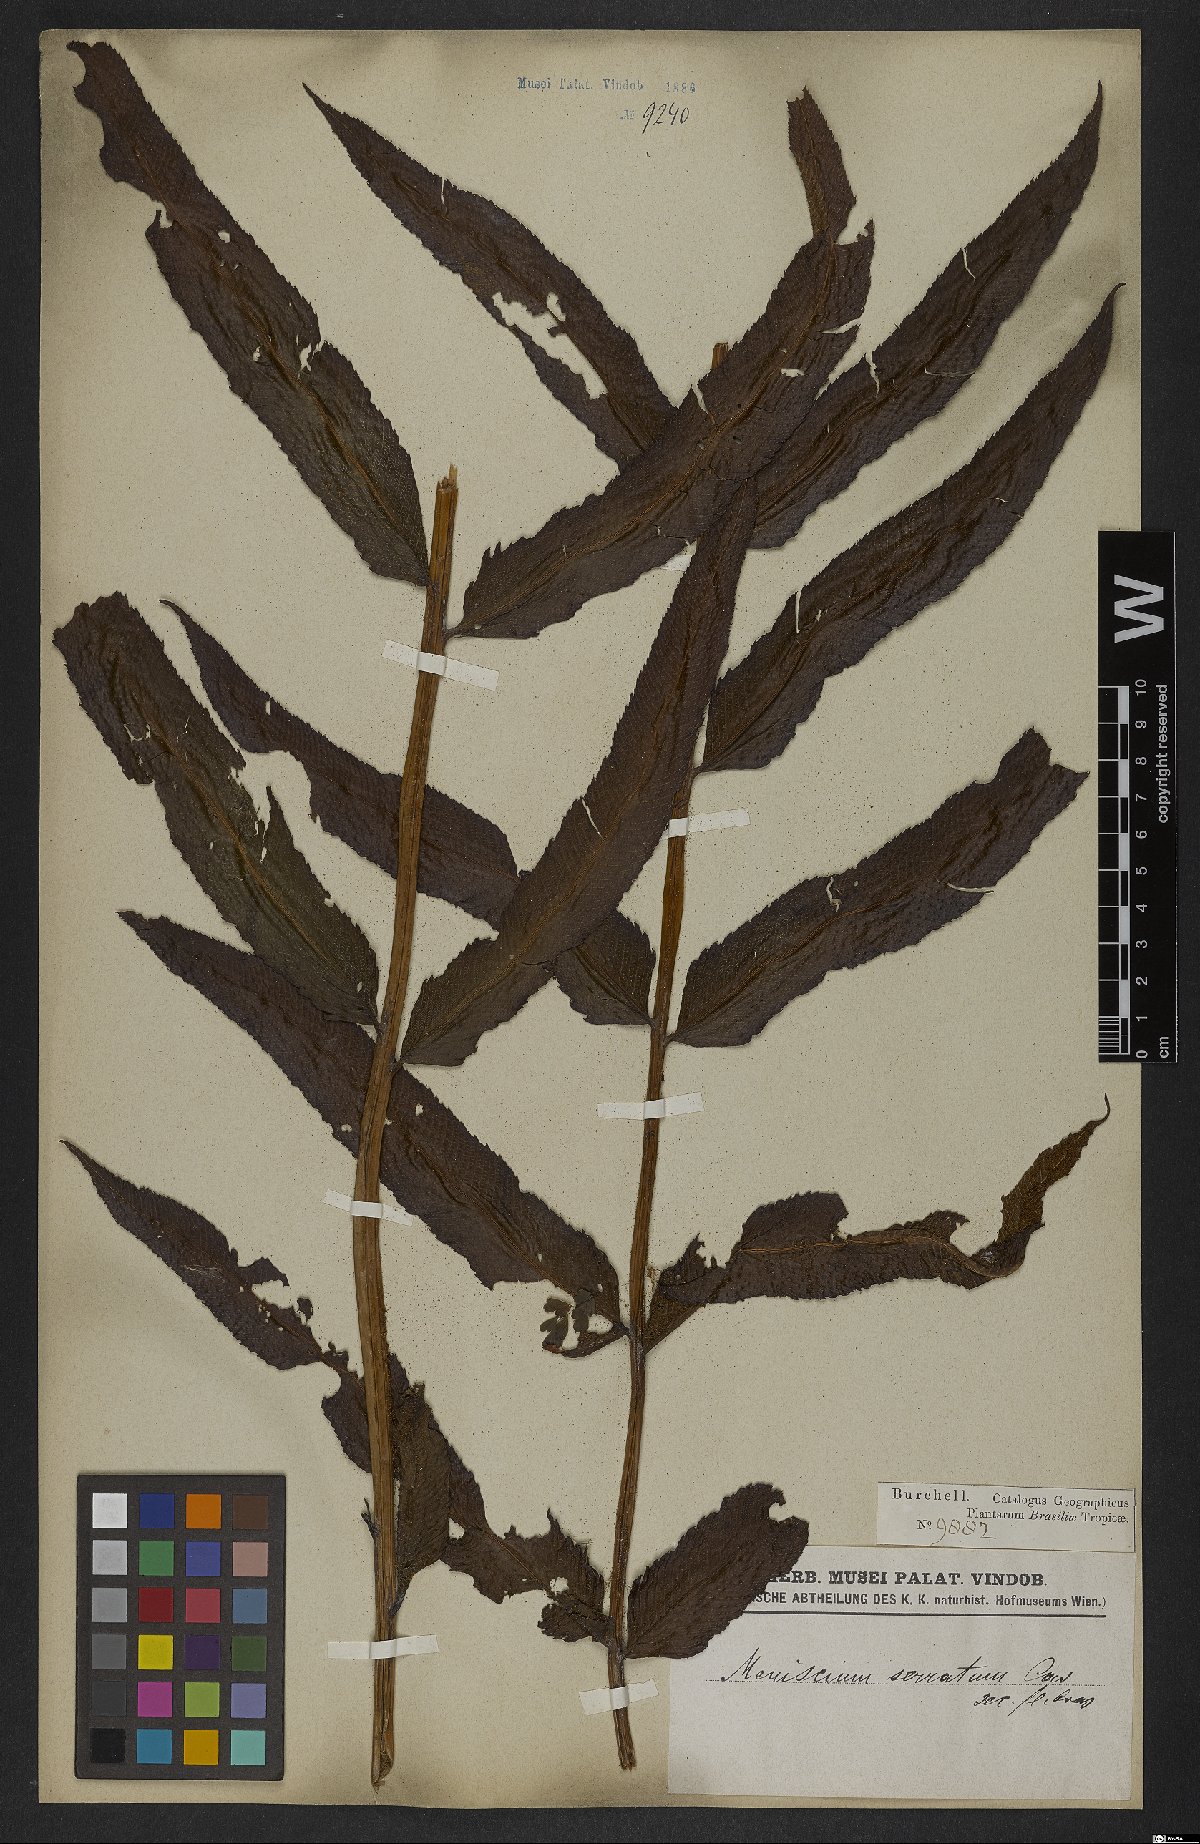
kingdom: Plantae
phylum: Tracheophyta
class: Polypodiopsida
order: Polypodiales
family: Thelypteridaceae
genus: Meniscium
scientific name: Meniscium serratum
